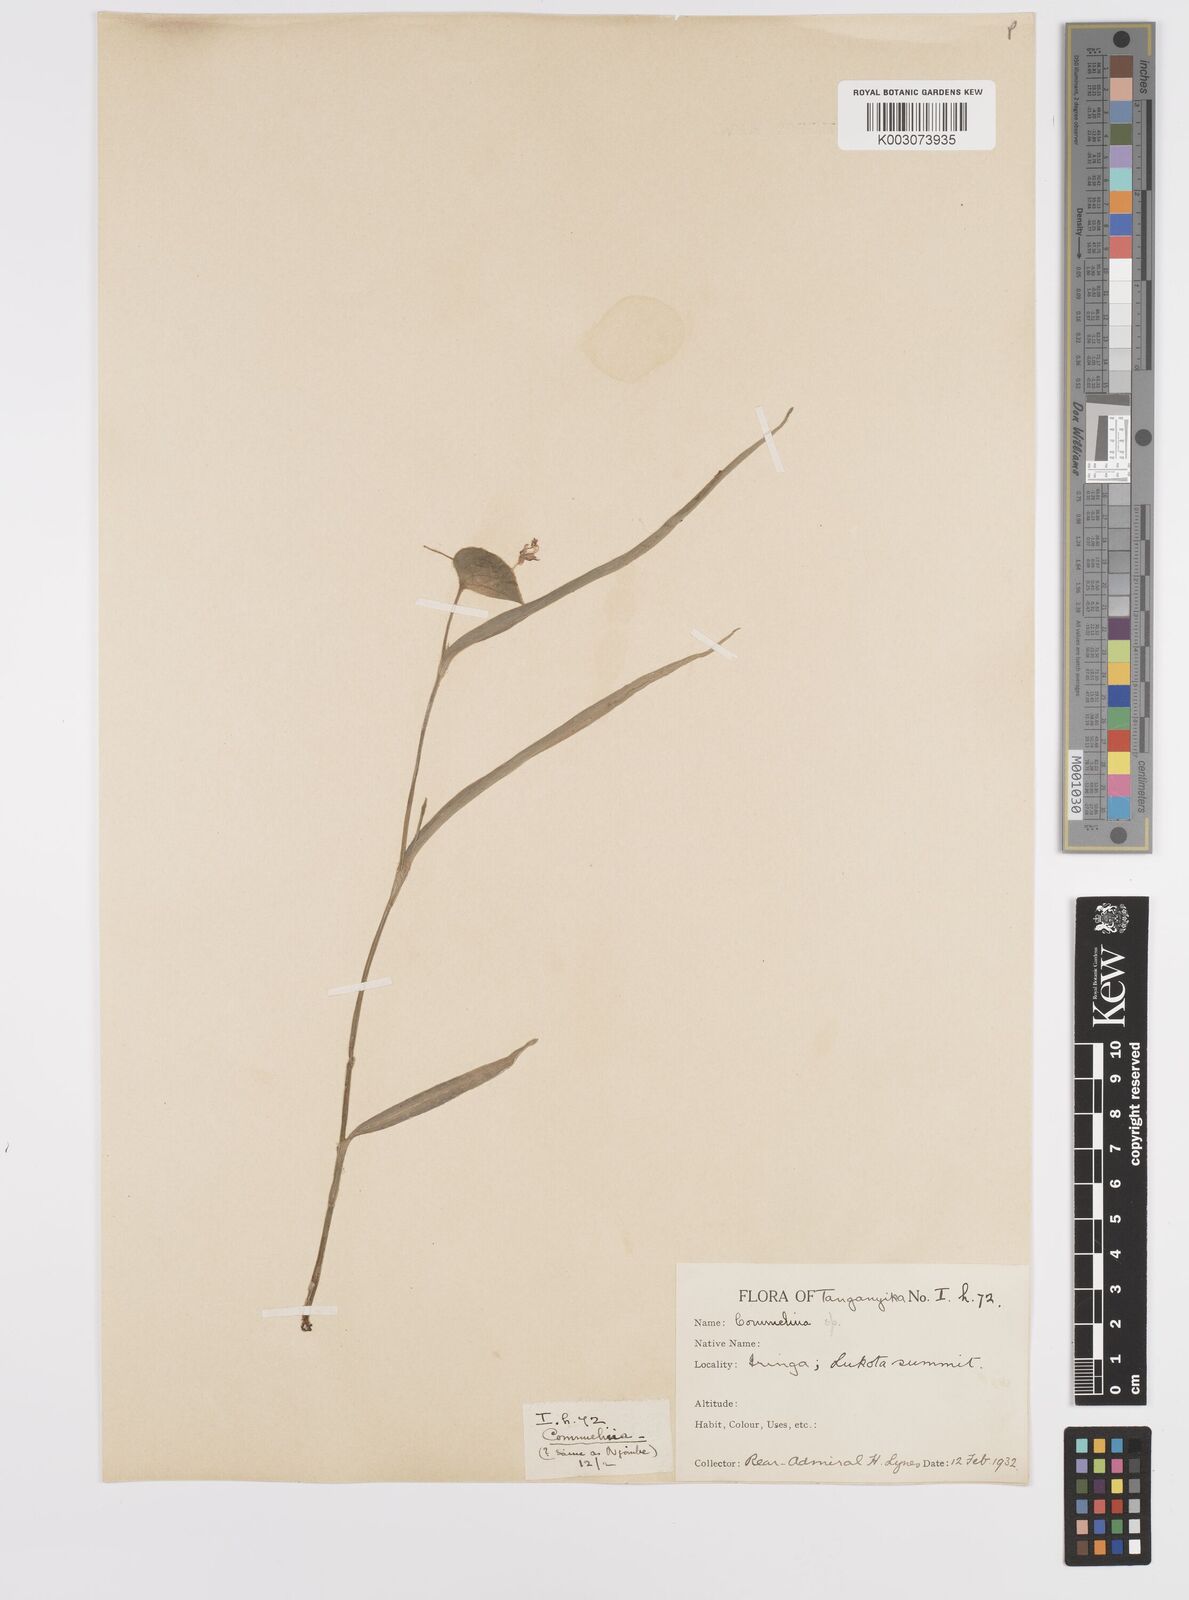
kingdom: Plantae
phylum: Tracheophyta
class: Liliopsida
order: Commelinales
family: Commelinaceae
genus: Commelina
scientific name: Commelina eckloniana
